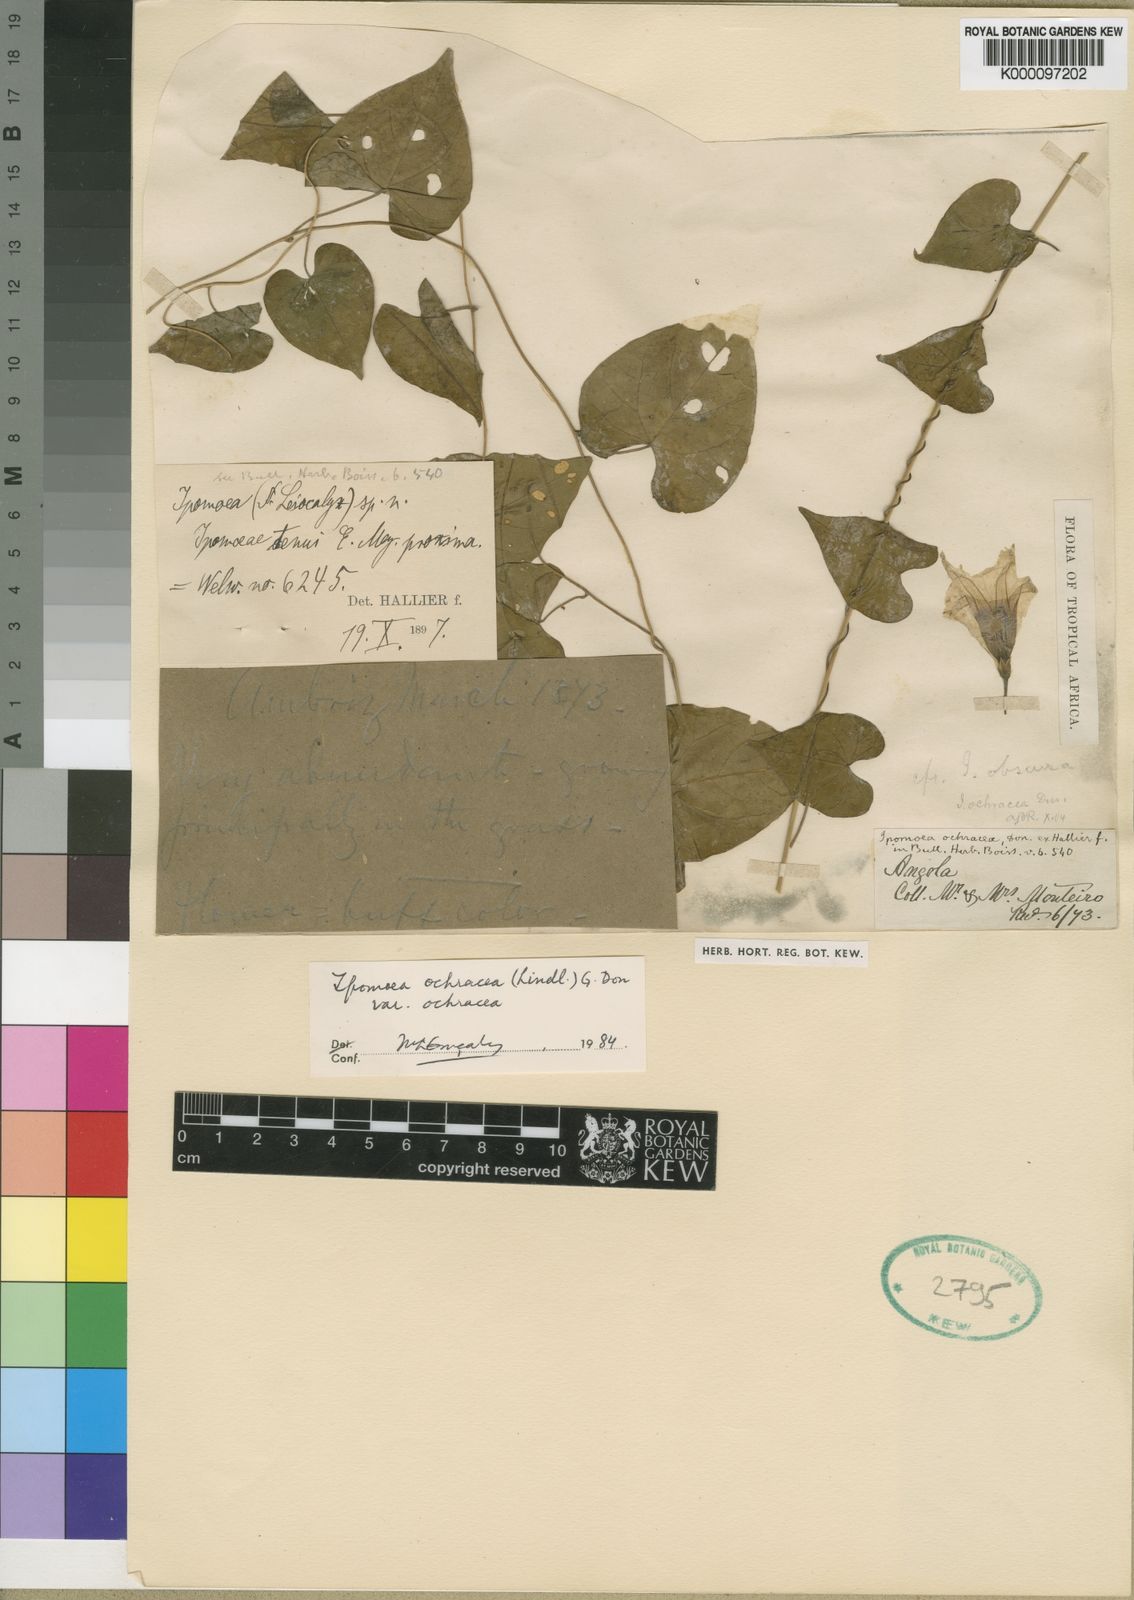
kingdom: Plantae
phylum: Tracheophyta
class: Magnoliopsida
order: Solanales
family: Convolvulaceae
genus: Ipomoea
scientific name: Ipomoea
